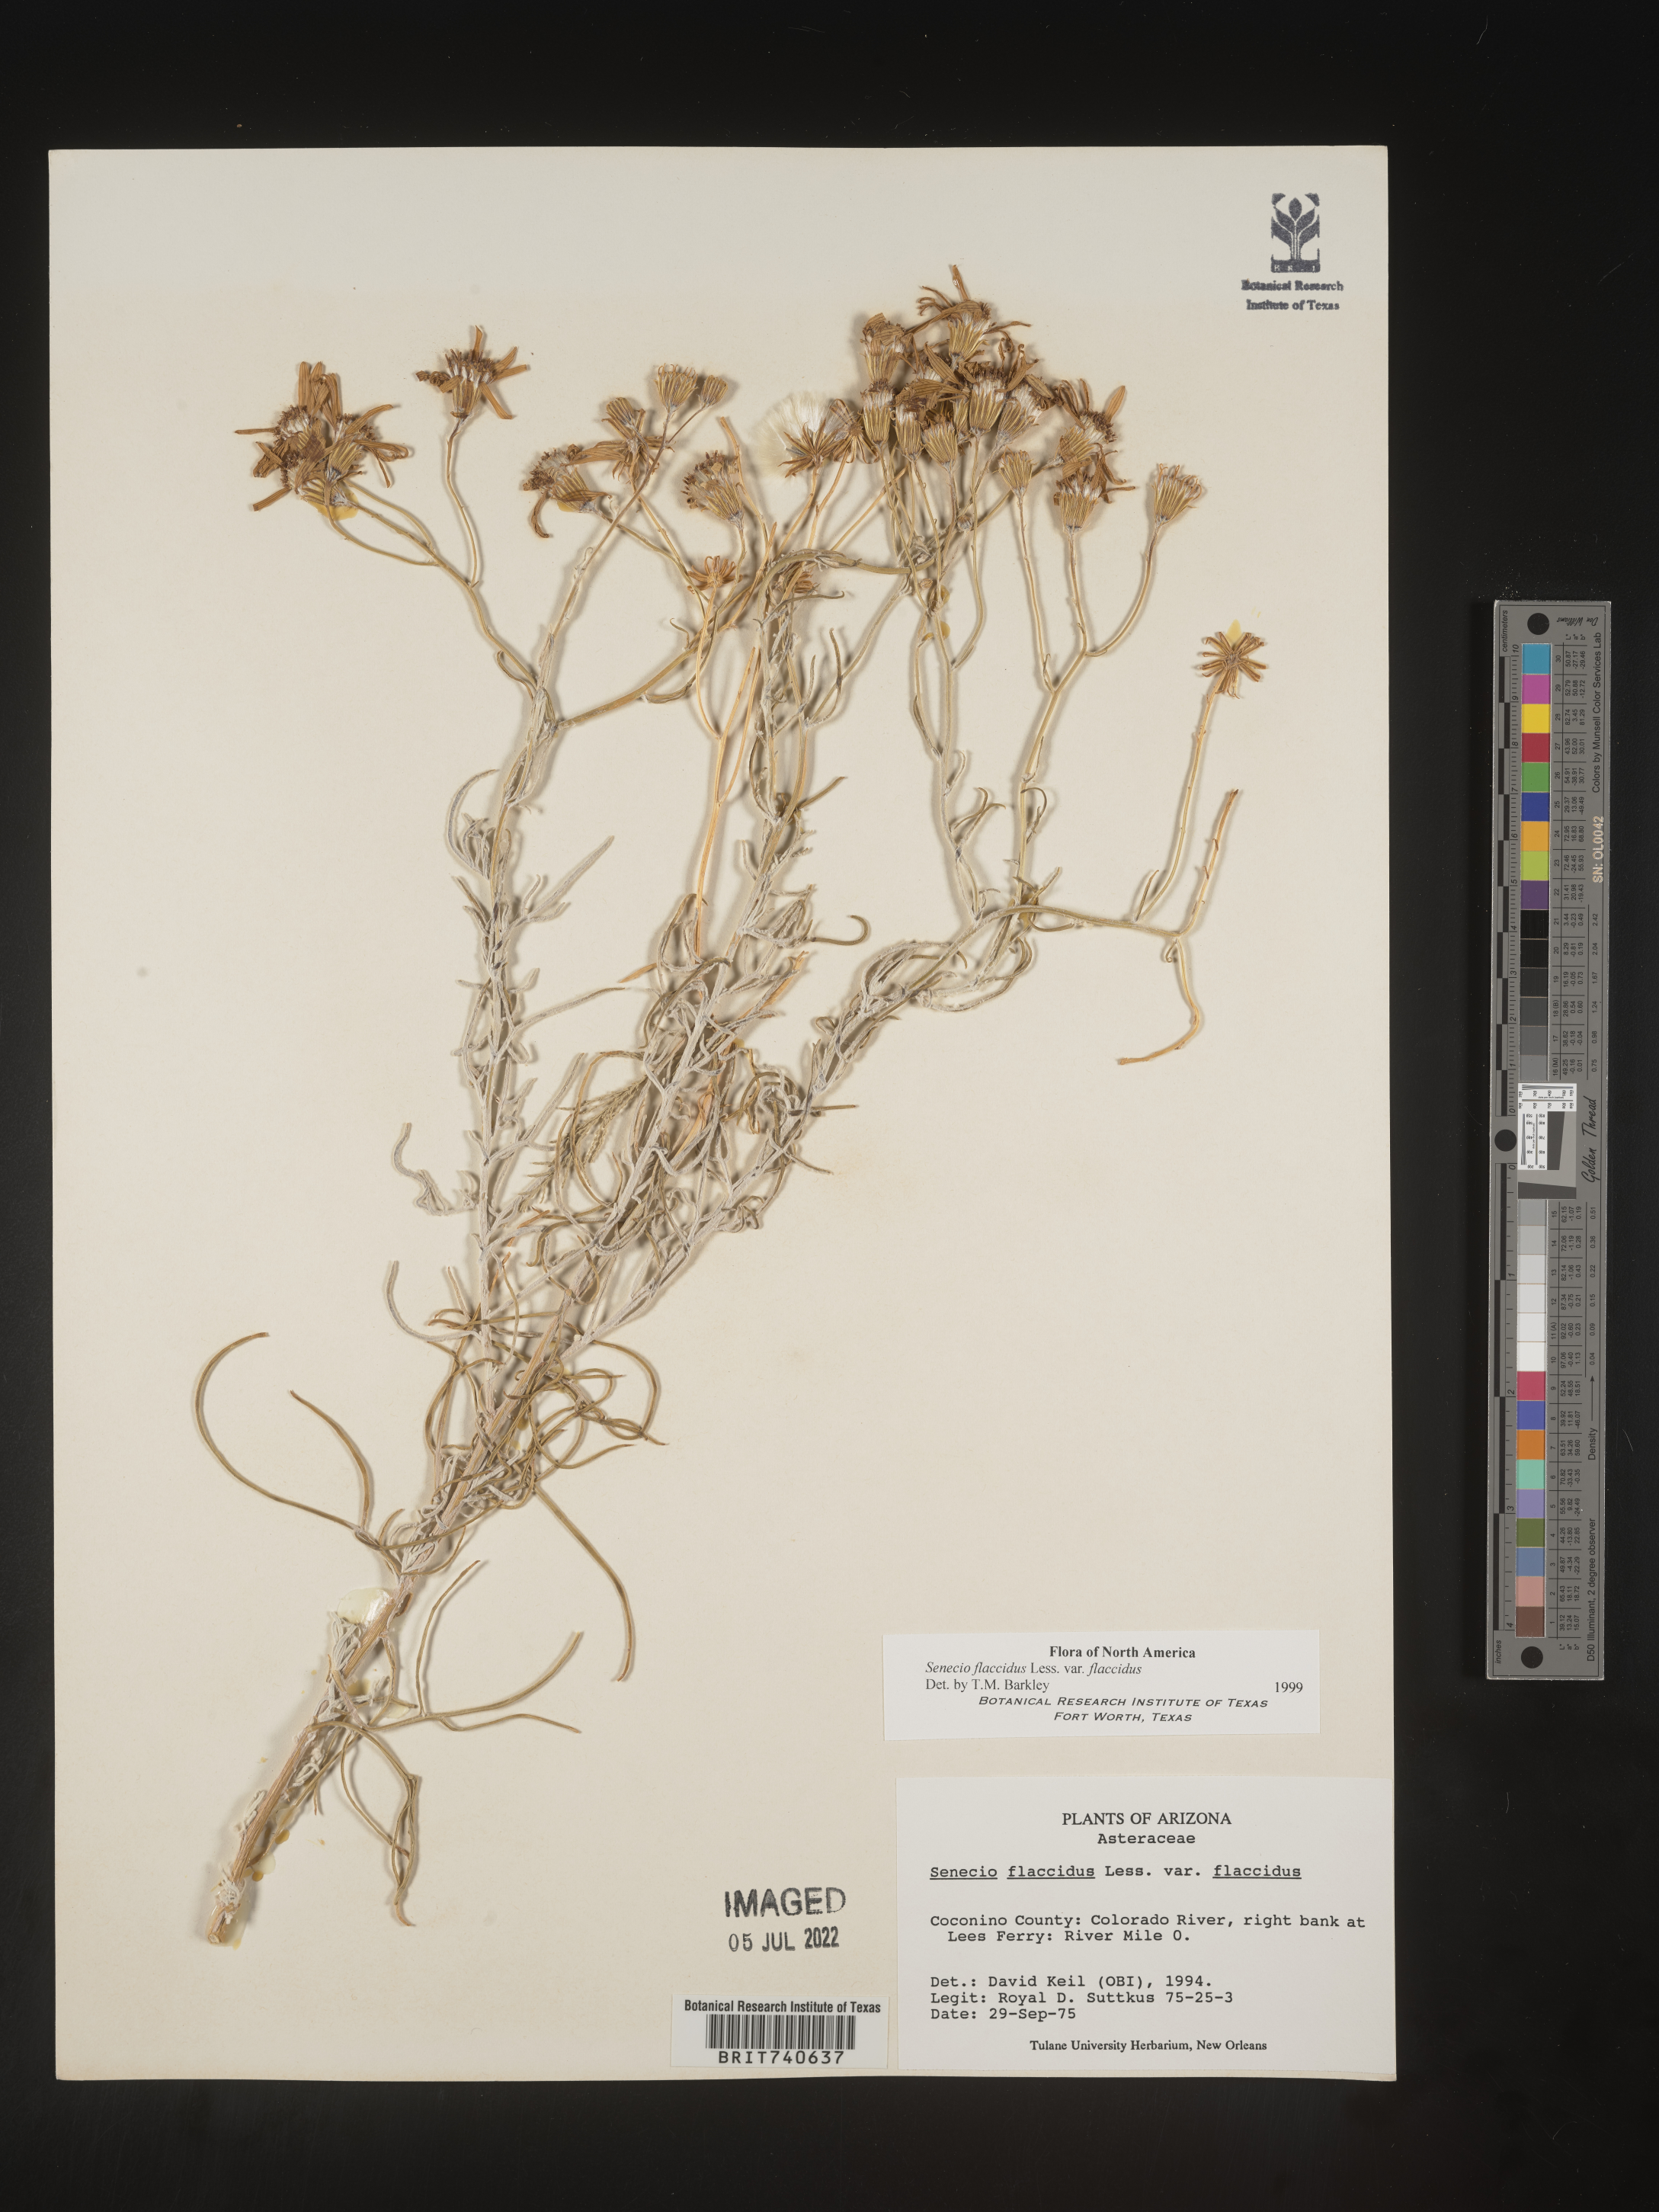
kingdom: Plantae
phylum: Tracheophyta
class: Magnoliopsida
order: Asterales
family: Asteraceae
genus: Senecio
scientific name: Senecio flaccidus
